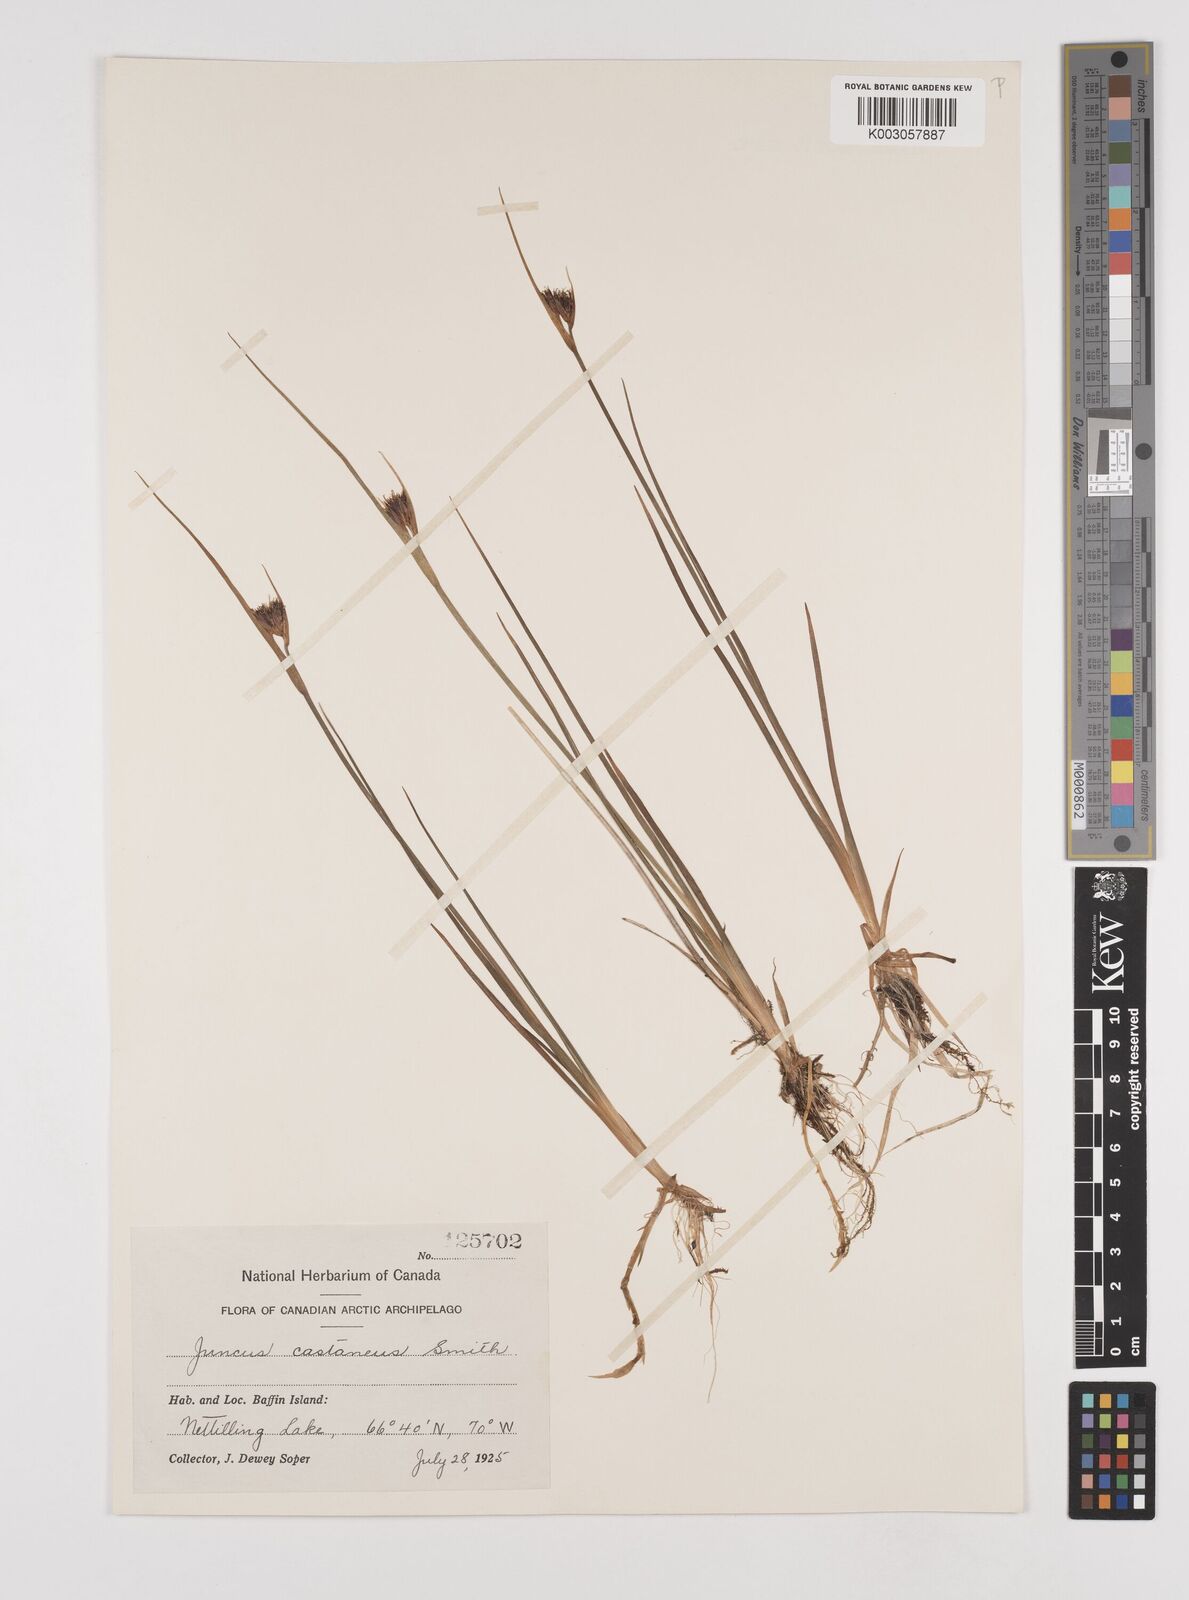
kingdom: Plantae
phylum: Tracheophyta
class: Liliopsida
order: Poales
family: Juncaceae
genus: Juncus
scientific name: Juncus castaneus
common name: Chestnut rush
